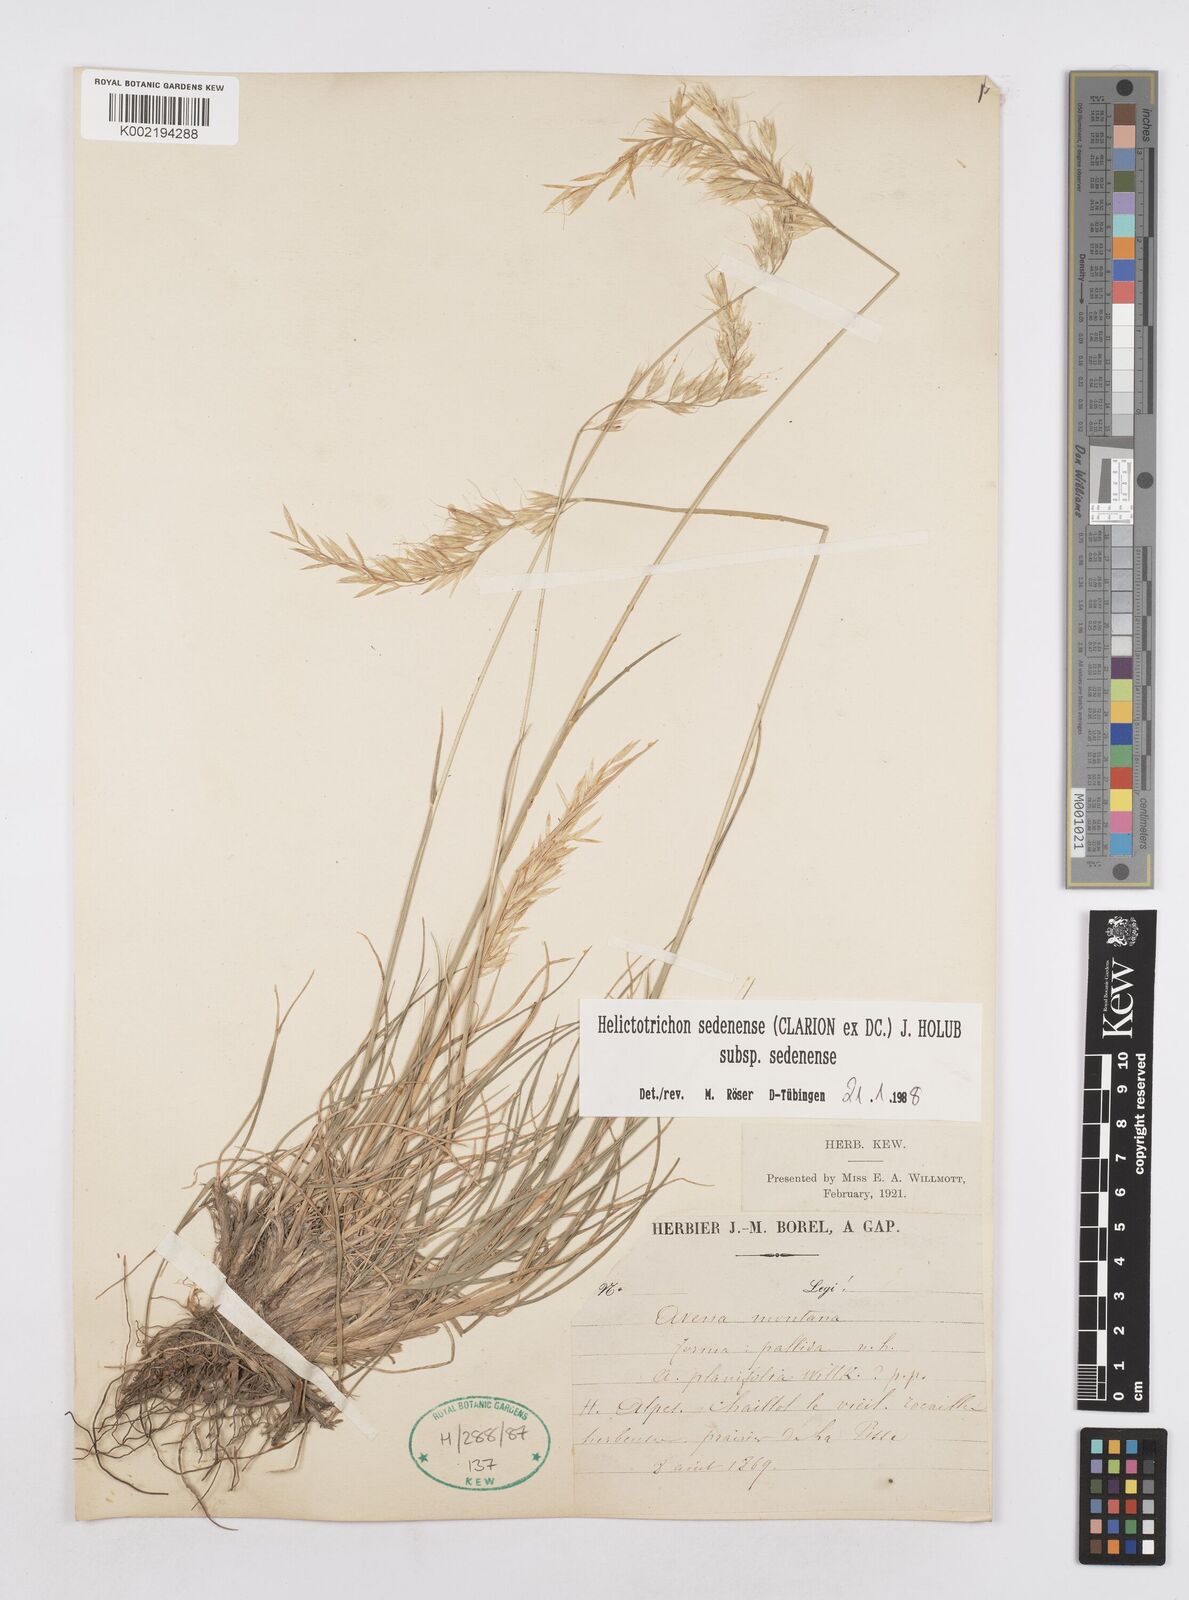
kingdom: Plantae
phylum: Tracheophyta
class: Liliopsida
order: Poales
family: Poaceae
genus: Helictotrichon
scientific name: Helictotrichon sedenense
